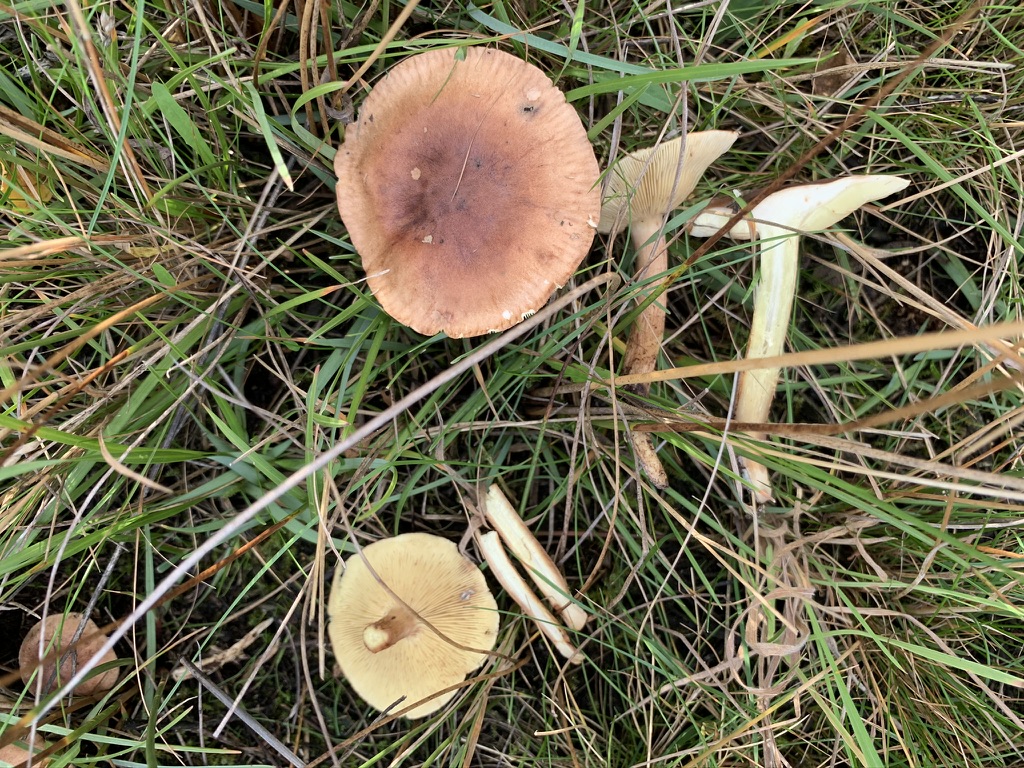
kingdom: Fungi
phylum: Basidiomycota
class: Agaricomycetes
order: Agaricales
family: Tricholomataceae
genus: Tricholoma
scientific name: Tricholoma fulvum
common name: birke-ridderhat
